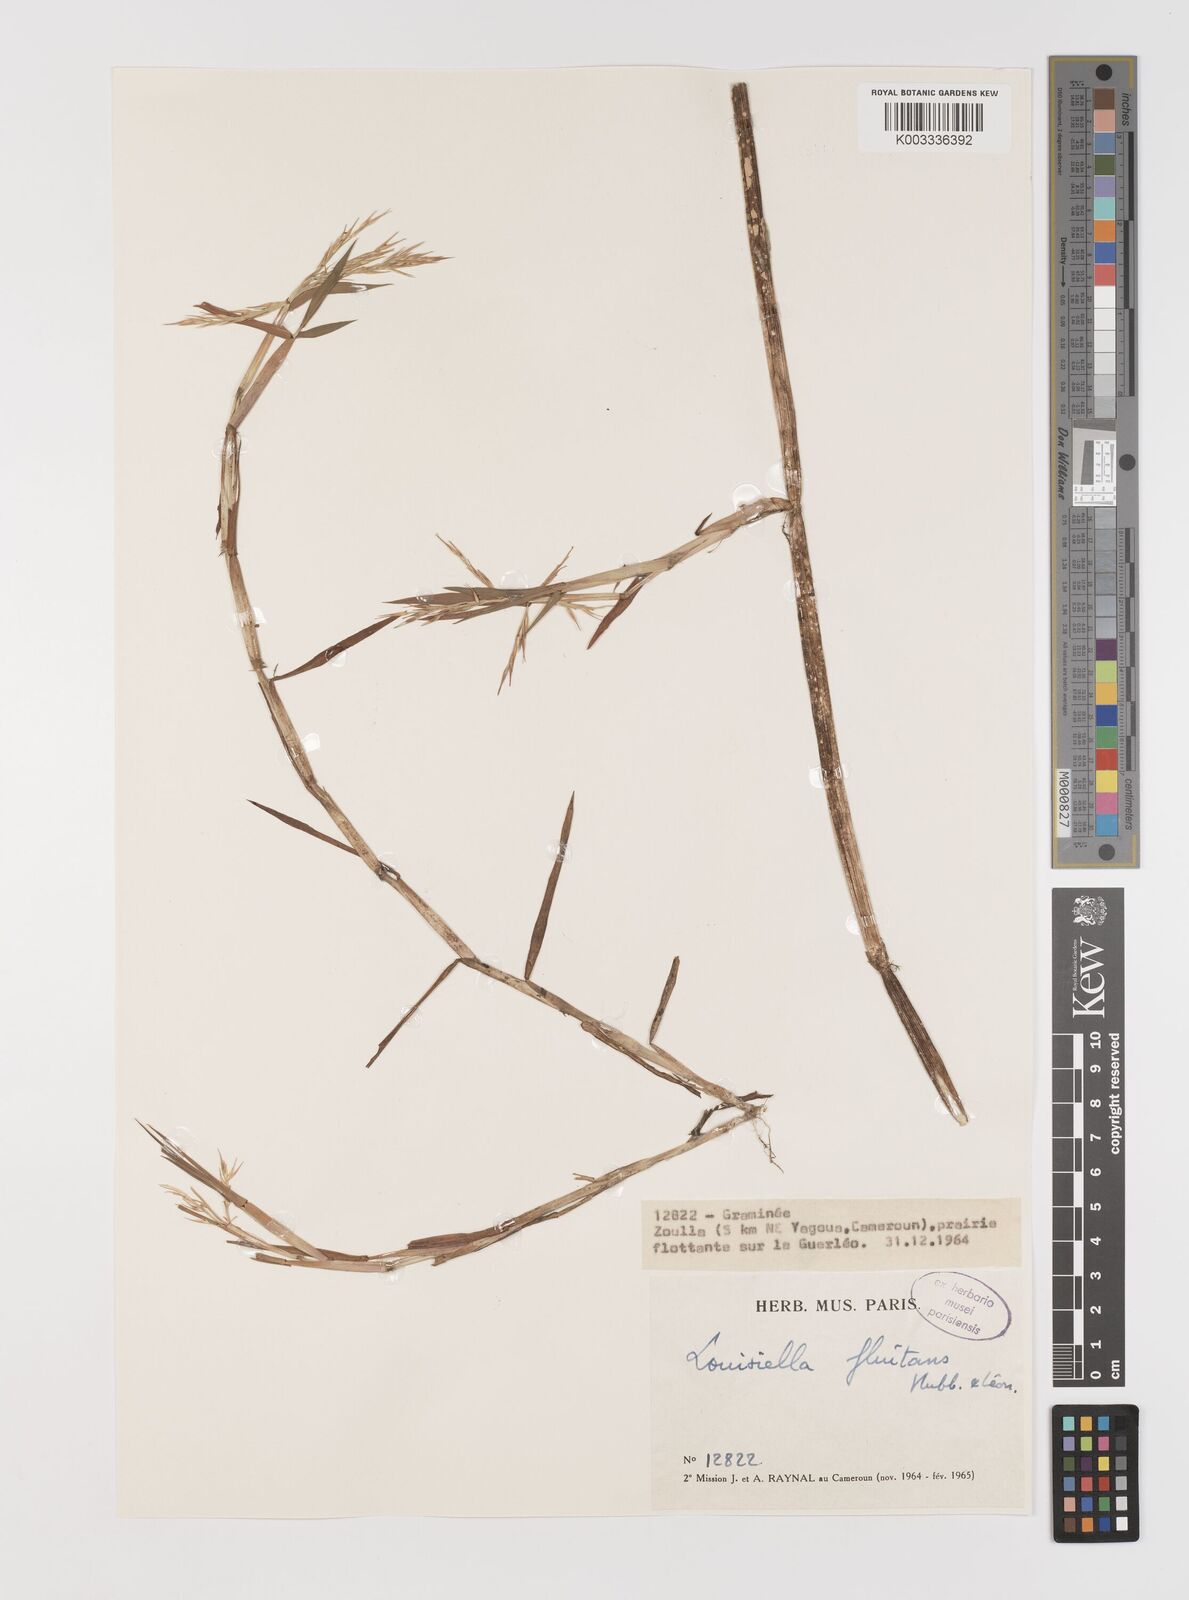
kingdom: Plantae
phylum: Tracheophyta
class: Liliopsida
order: Poales
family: Poaceae
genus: Louisiella
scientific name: Louisiella fluitans
